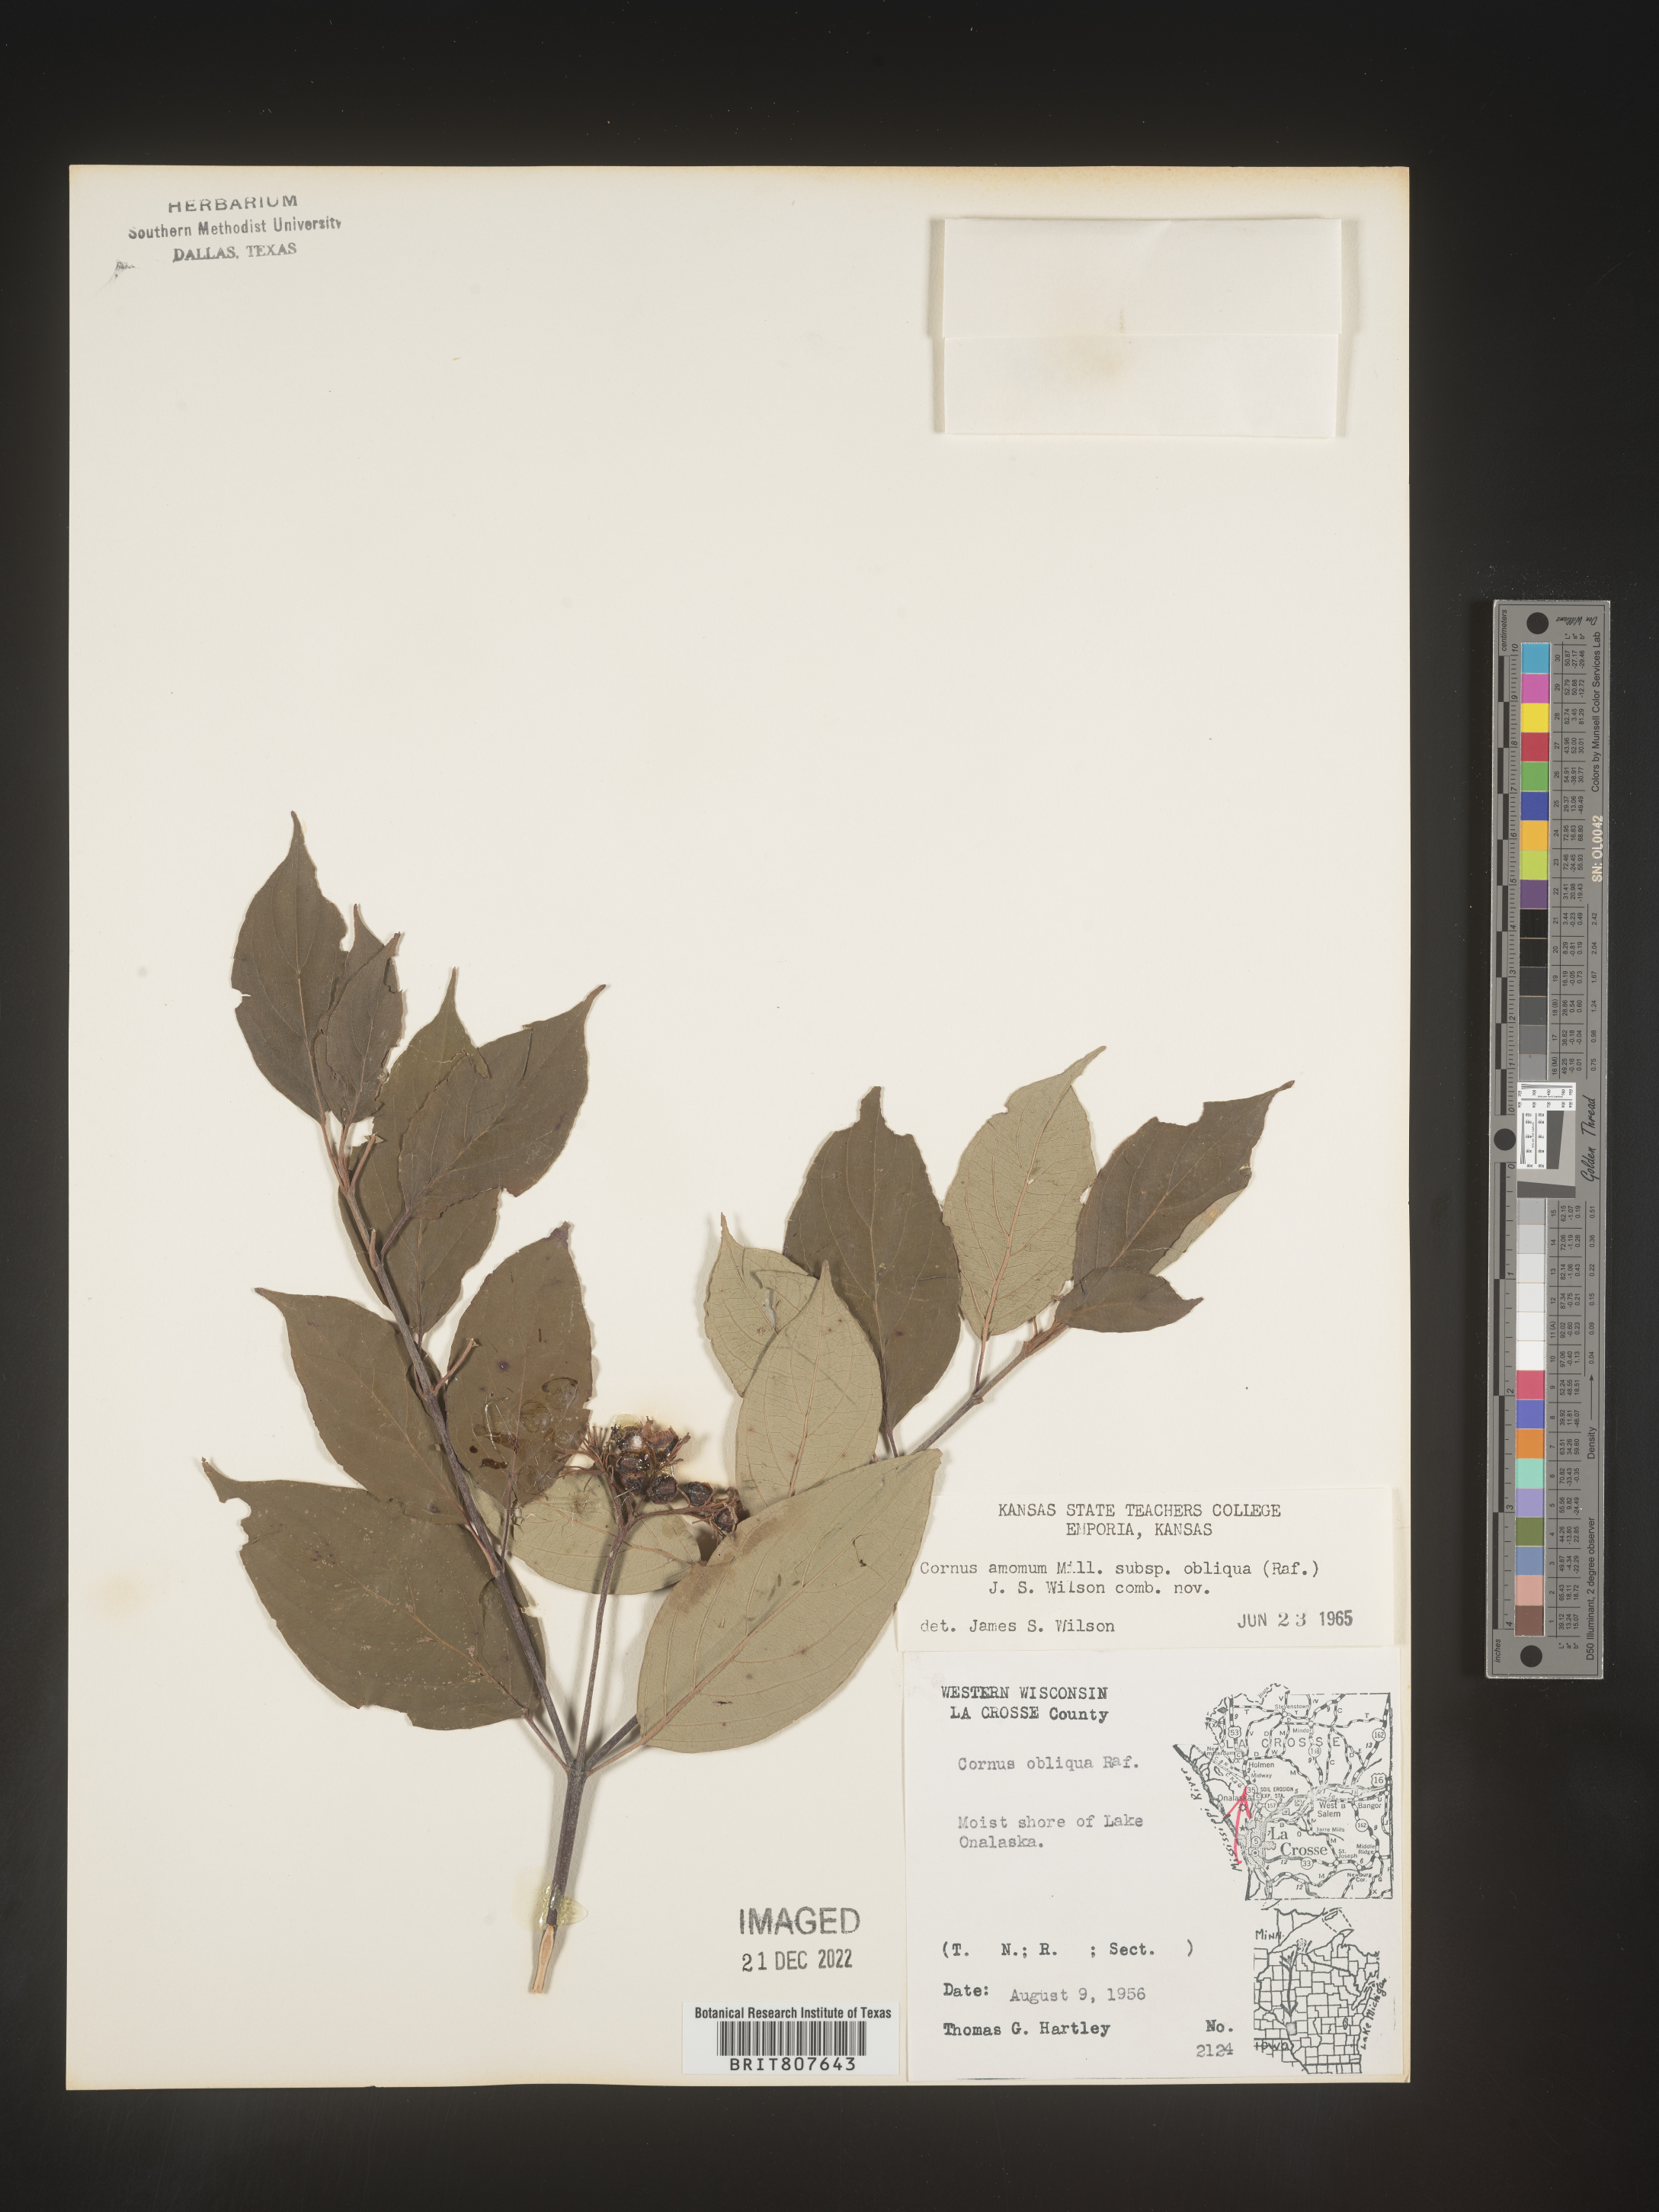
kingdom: Plantae
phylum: Tracheophyta
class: Magnoliopsida
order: Cornales
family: Cornaceae
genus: Cornus
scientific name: Cornus obliqua
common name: Pale dogwood
